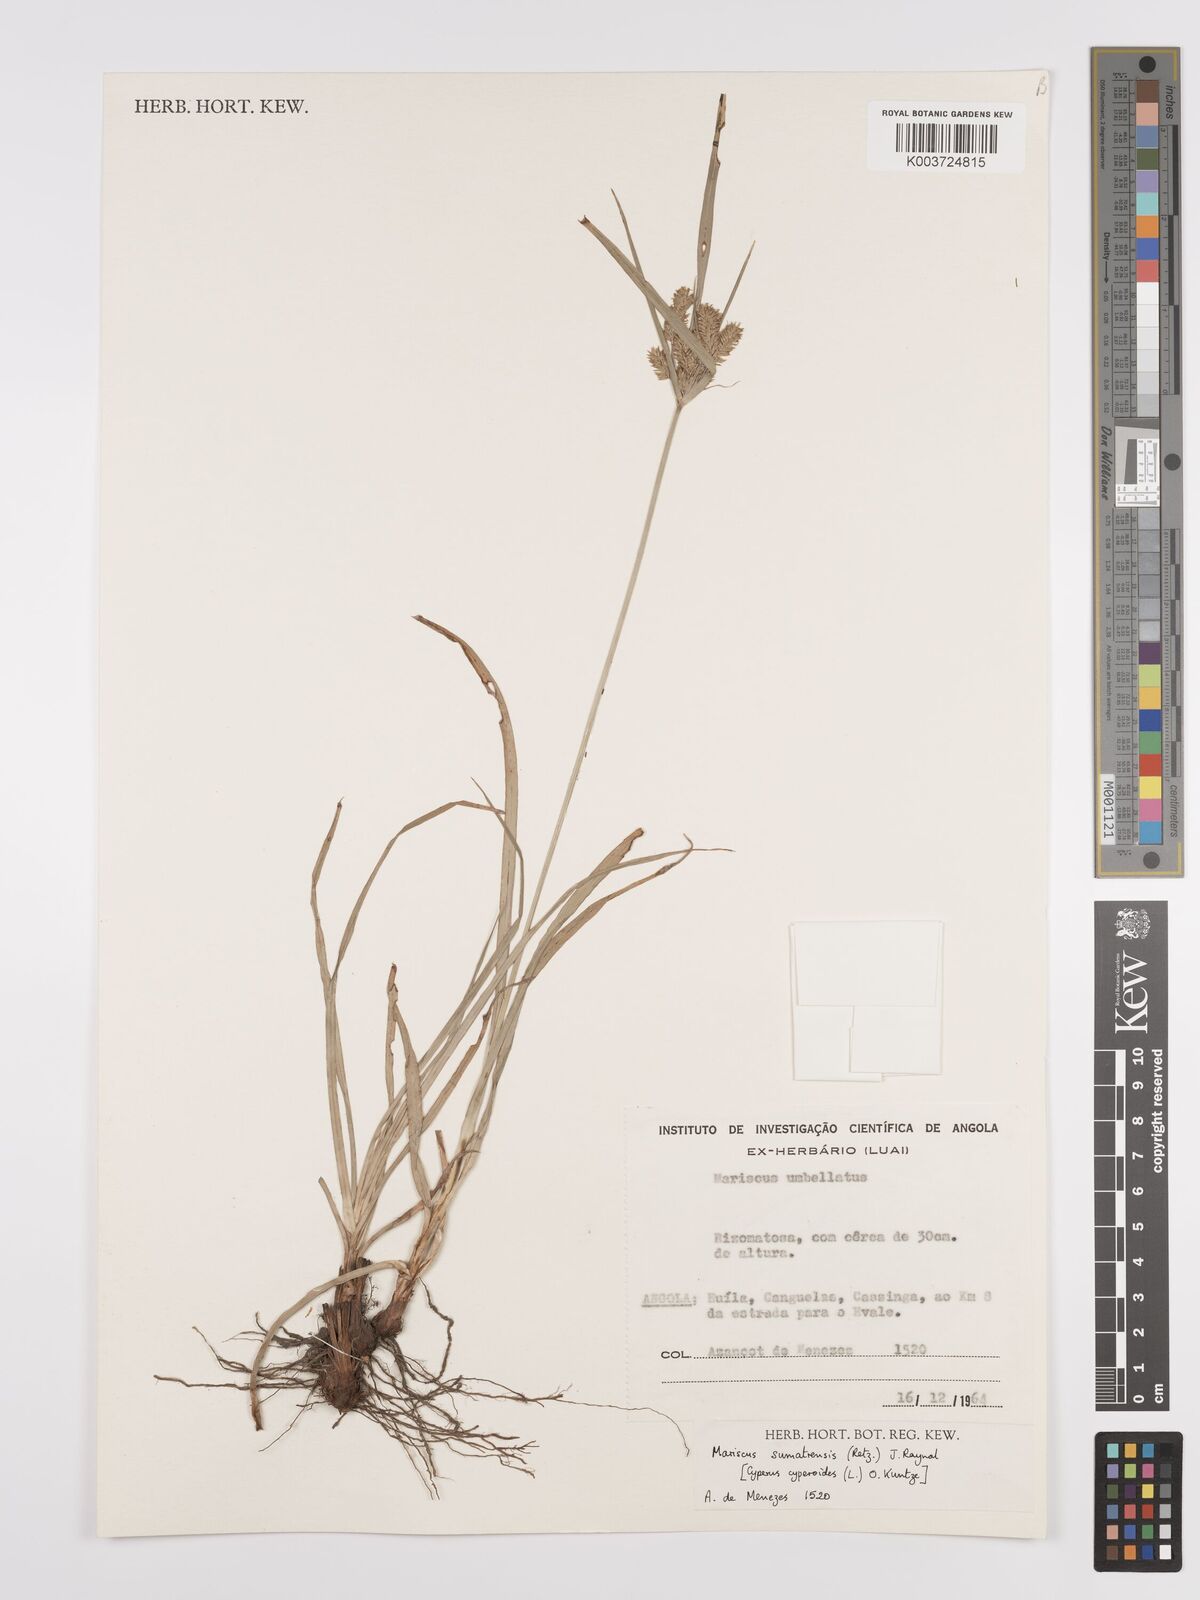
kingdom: Plantae
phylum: Tracheophyta
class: Liliopsida
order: Poales
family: Cyperaceae
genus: Cyperus
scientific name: Cyperus cyperoides
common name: Pacific island flat sedge
